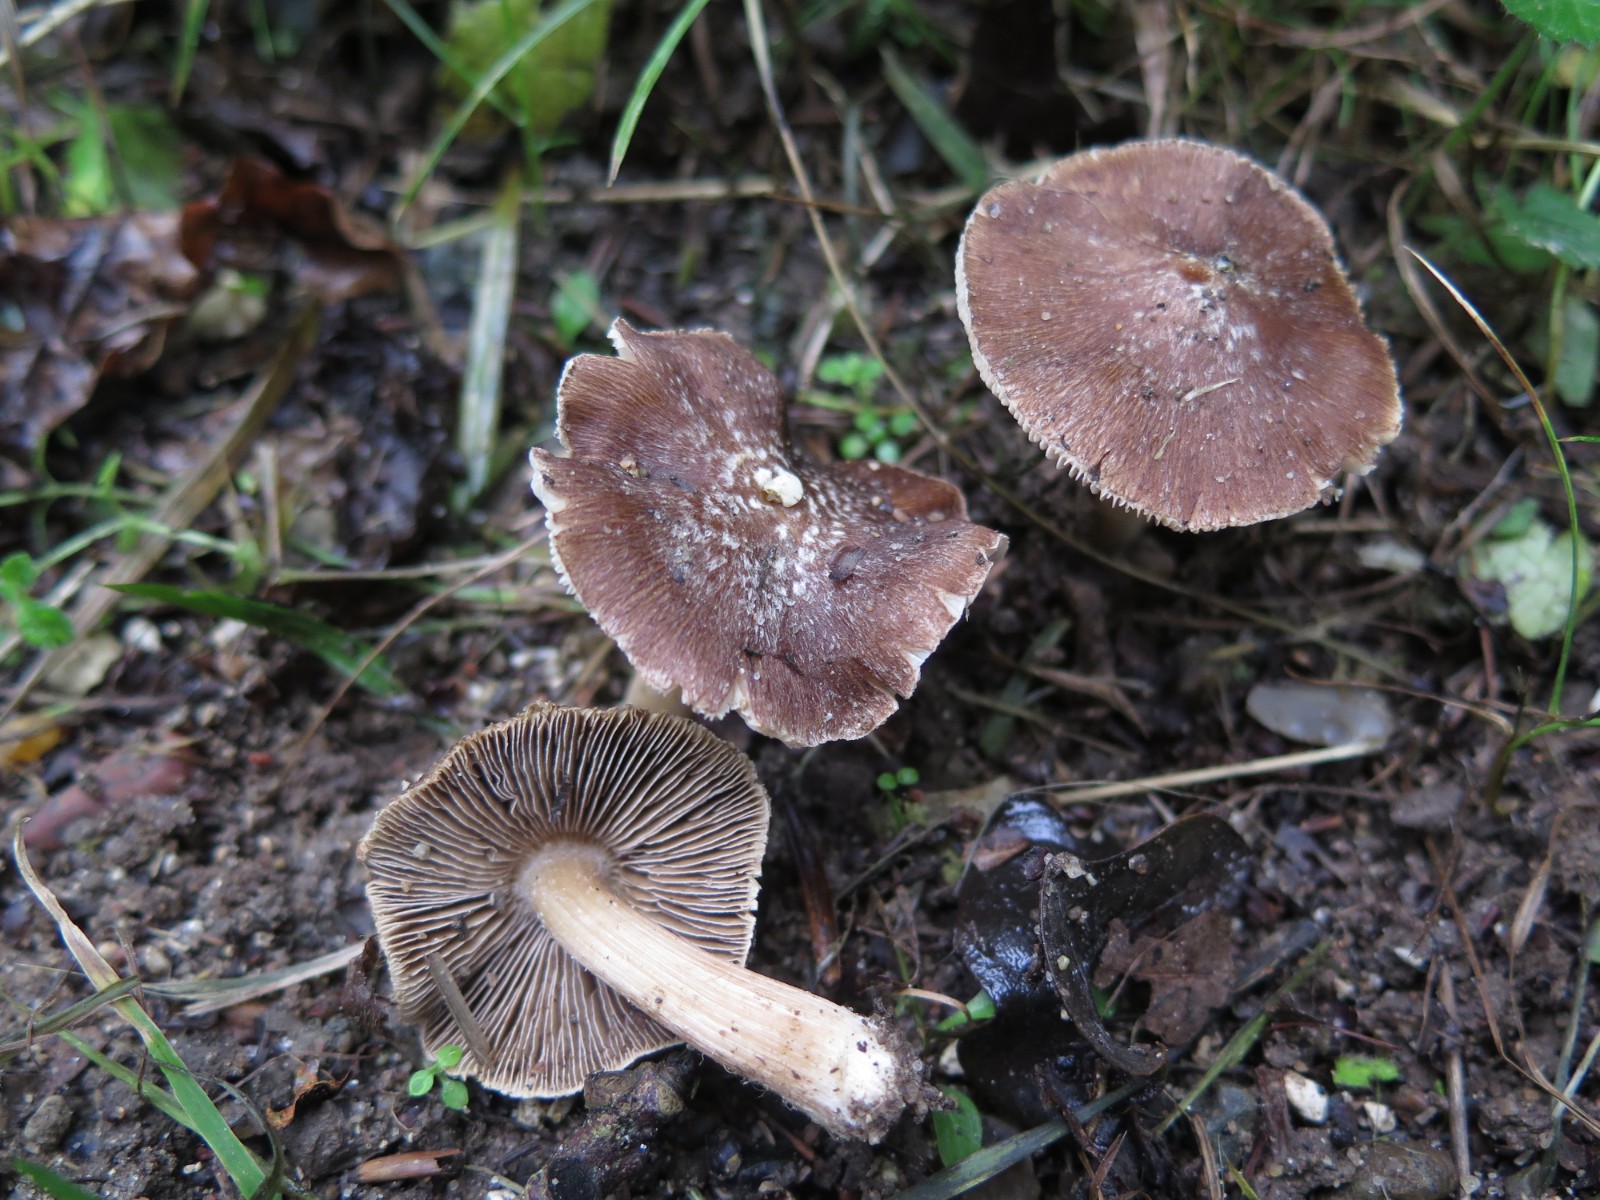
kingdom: Fungi
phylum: Basidiomycota
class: Agaricomycetes
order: Agaricales
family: Inocybaceae
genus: Inosperma
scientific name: Inosperma
